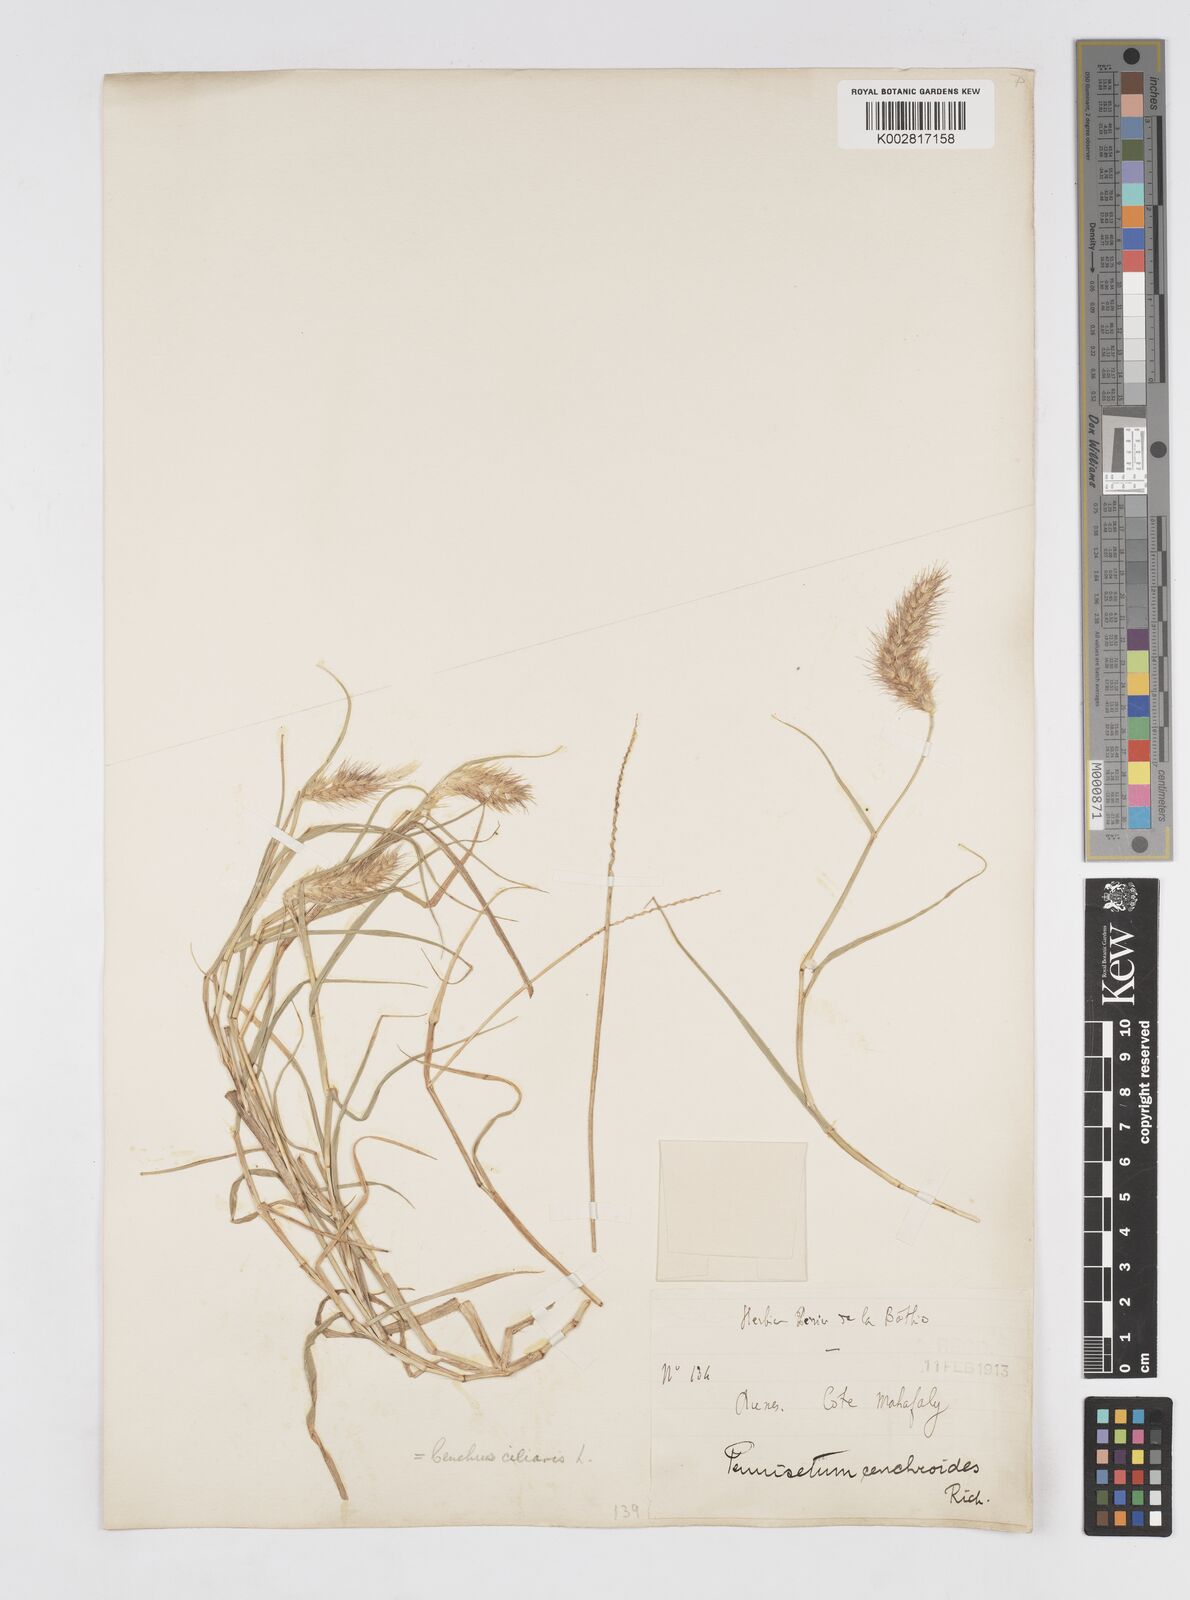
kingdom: Plantae
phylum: Tracheophyta
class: Liliopsida
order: Poales
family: Poaceae
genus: Cenchrus
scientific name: Cenchrus ciliaris
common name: Buffelgrass
